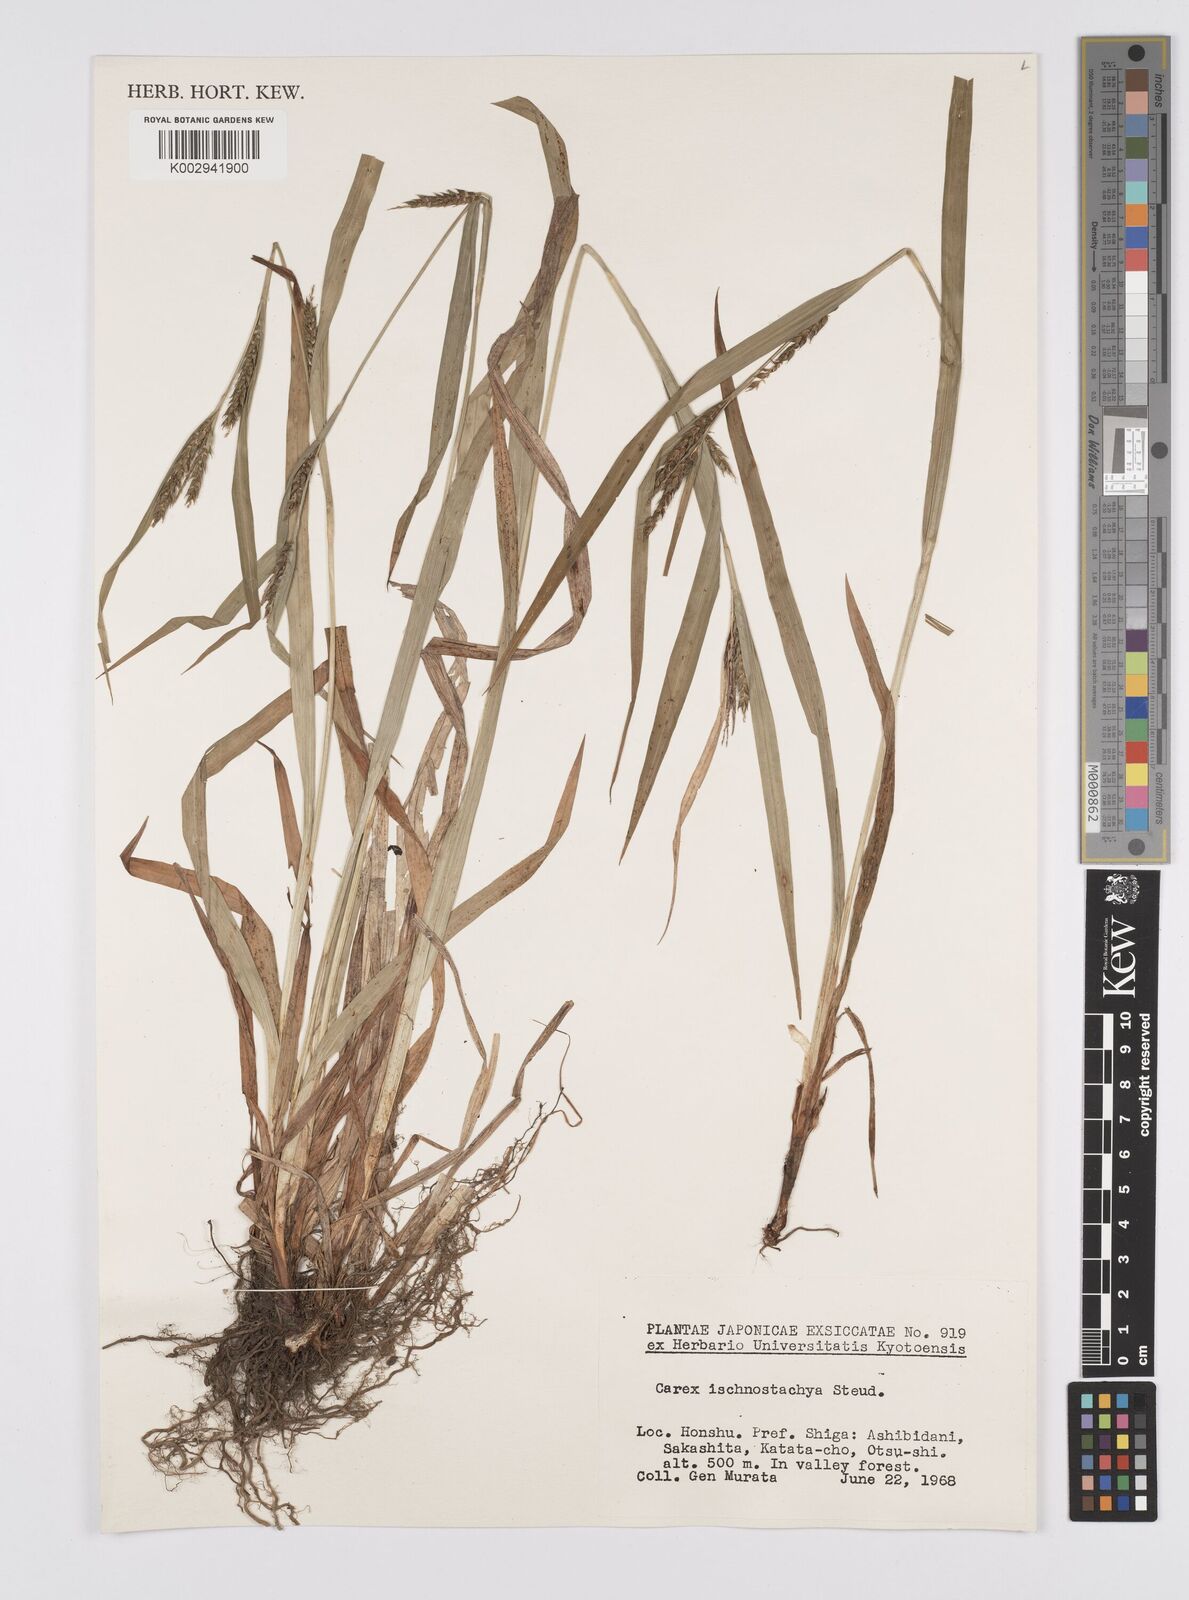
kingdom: Plantae
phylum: Tracheophyta
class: Liliopsida
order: Poales
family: Cyperaceae
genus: Carex
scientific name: Carex ischnostachya
